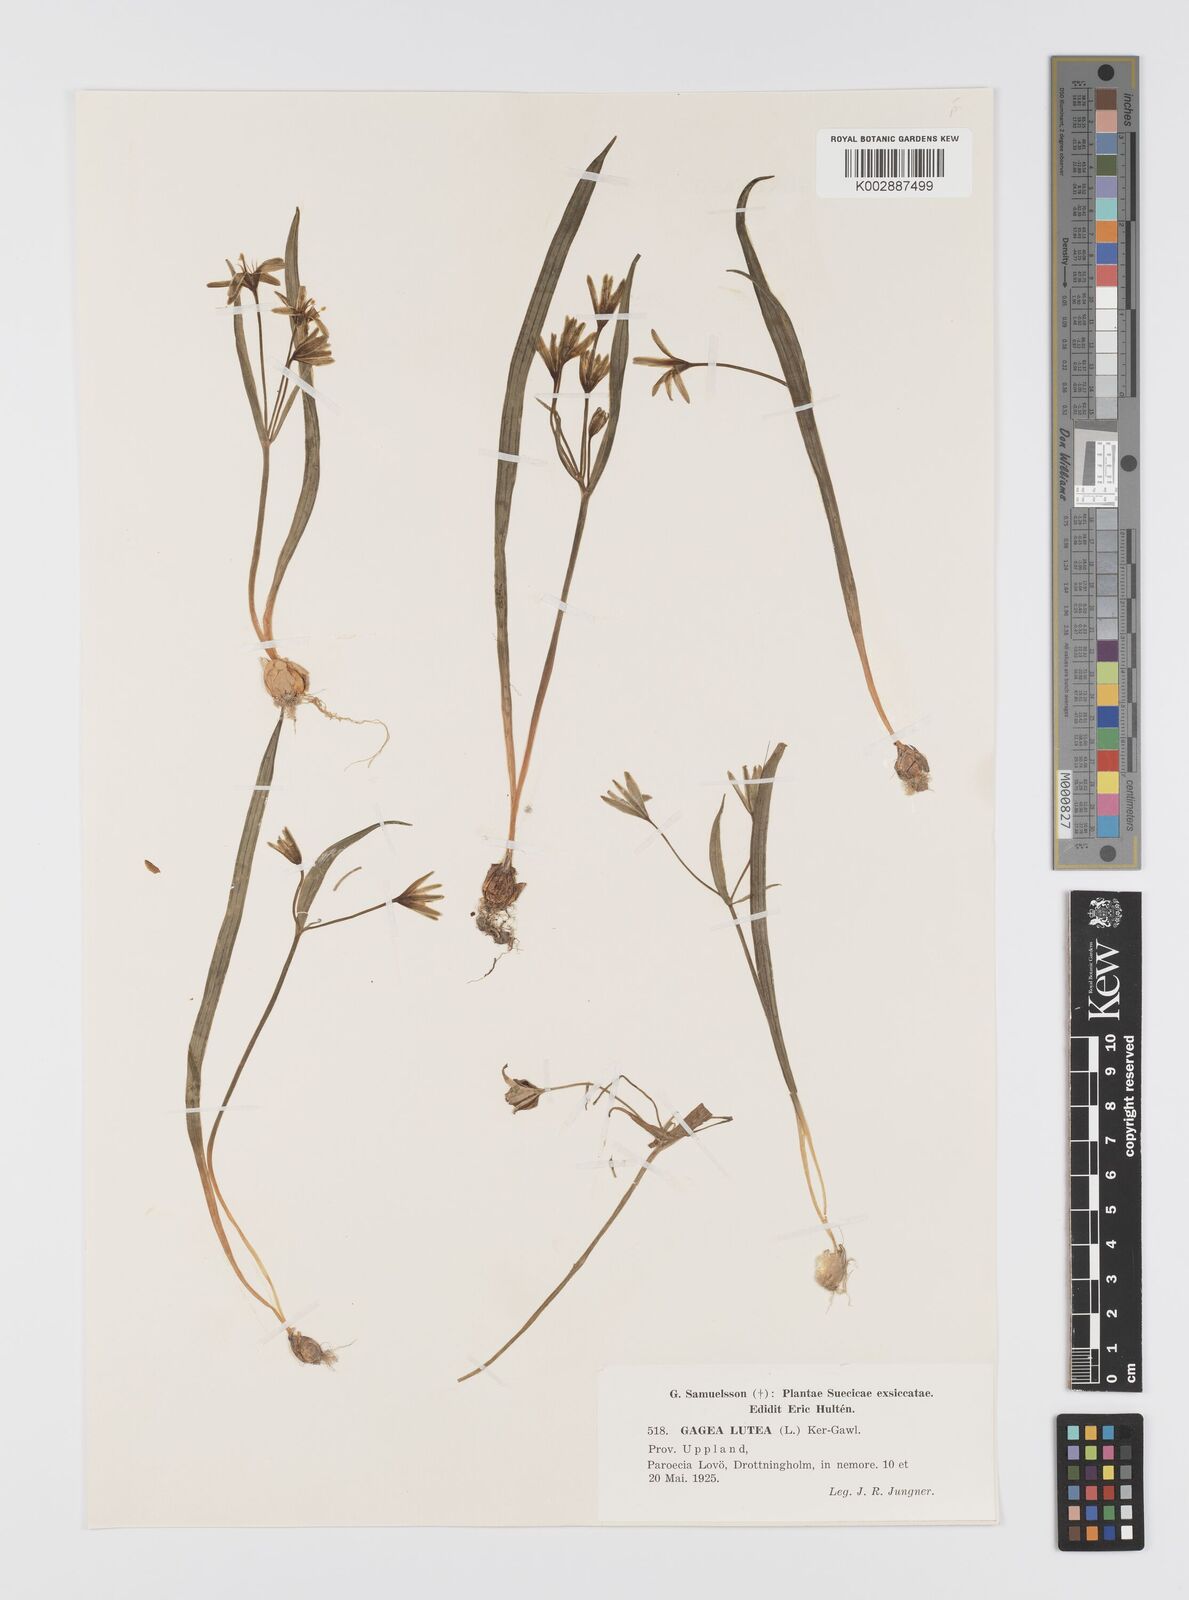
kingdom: Plantae
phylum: Tracheophyta
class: Liliopsida
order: Liliales
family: Liliaceae
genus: Gagea
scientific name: Gagea lutea
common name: Yellow star-of-bethlehem
